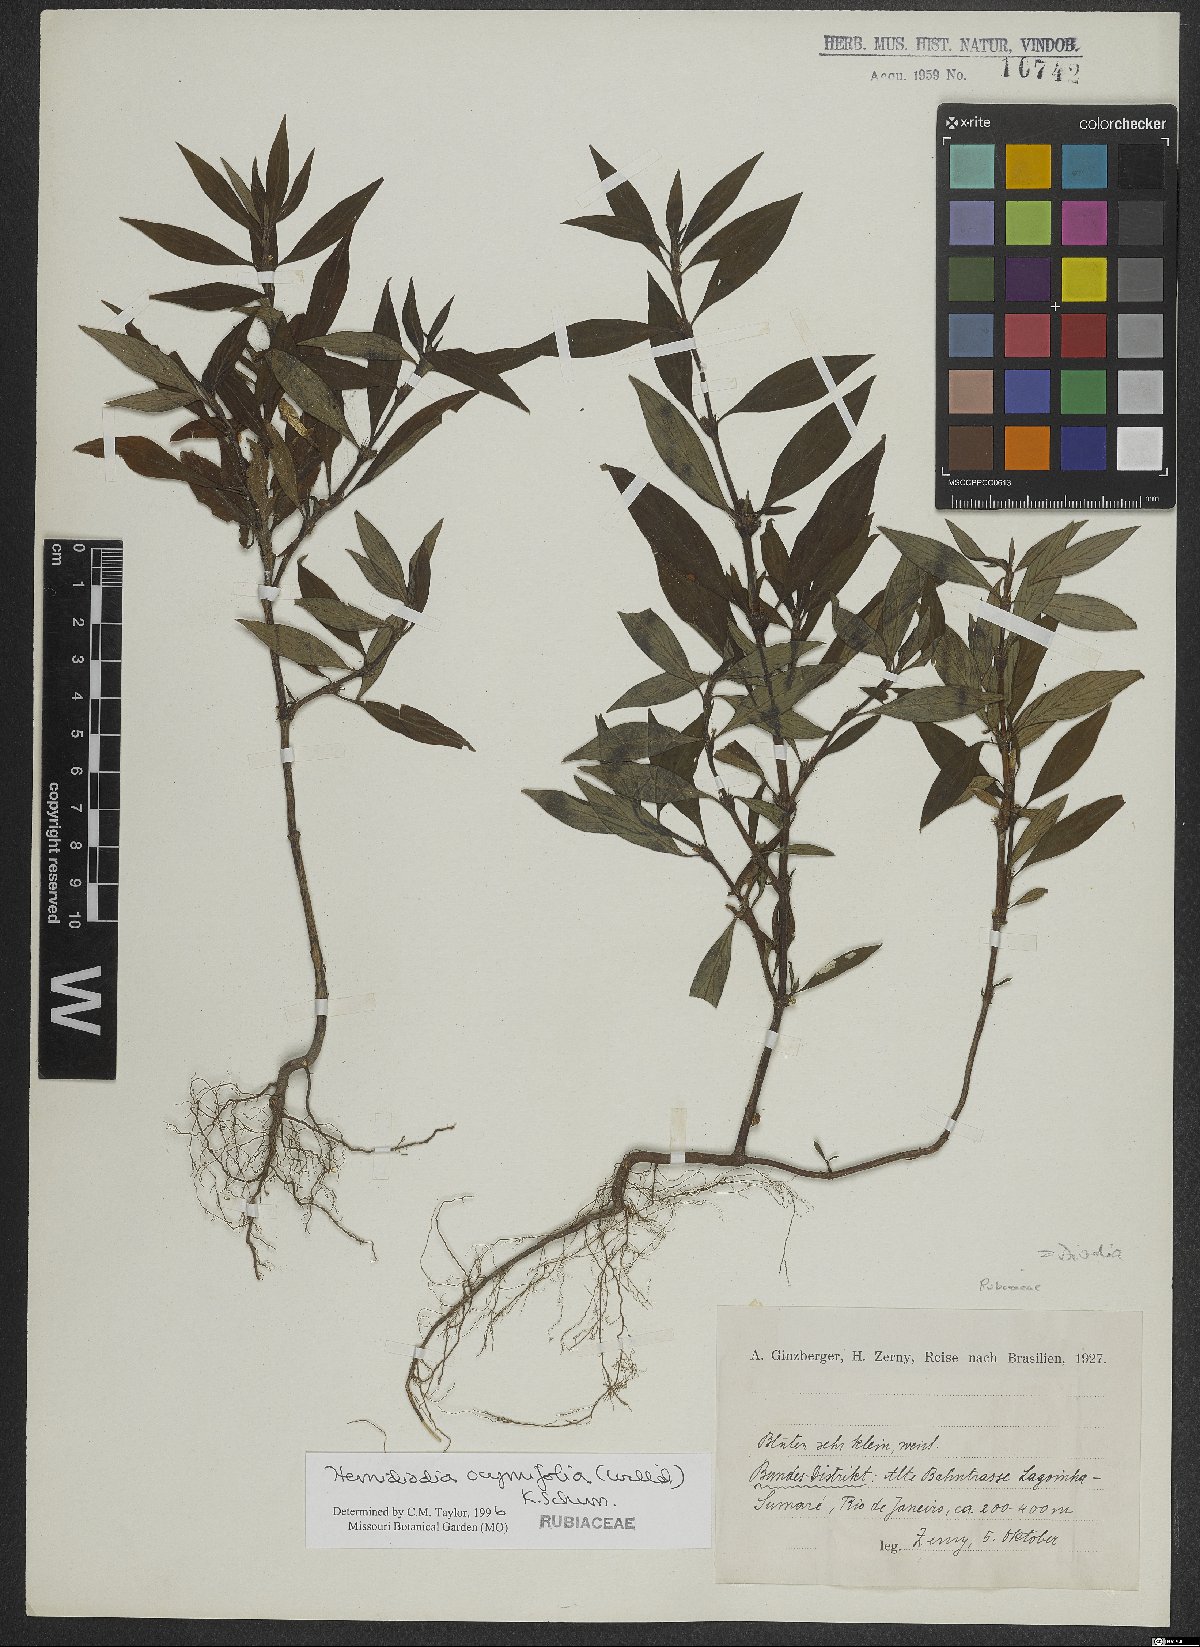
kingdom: Plantae
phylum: Tracheophyta
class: Magnoliopsida
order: Gentianales
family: Rubiaceae
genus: Spermacoce
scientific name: Spermacoce ocymifolia
